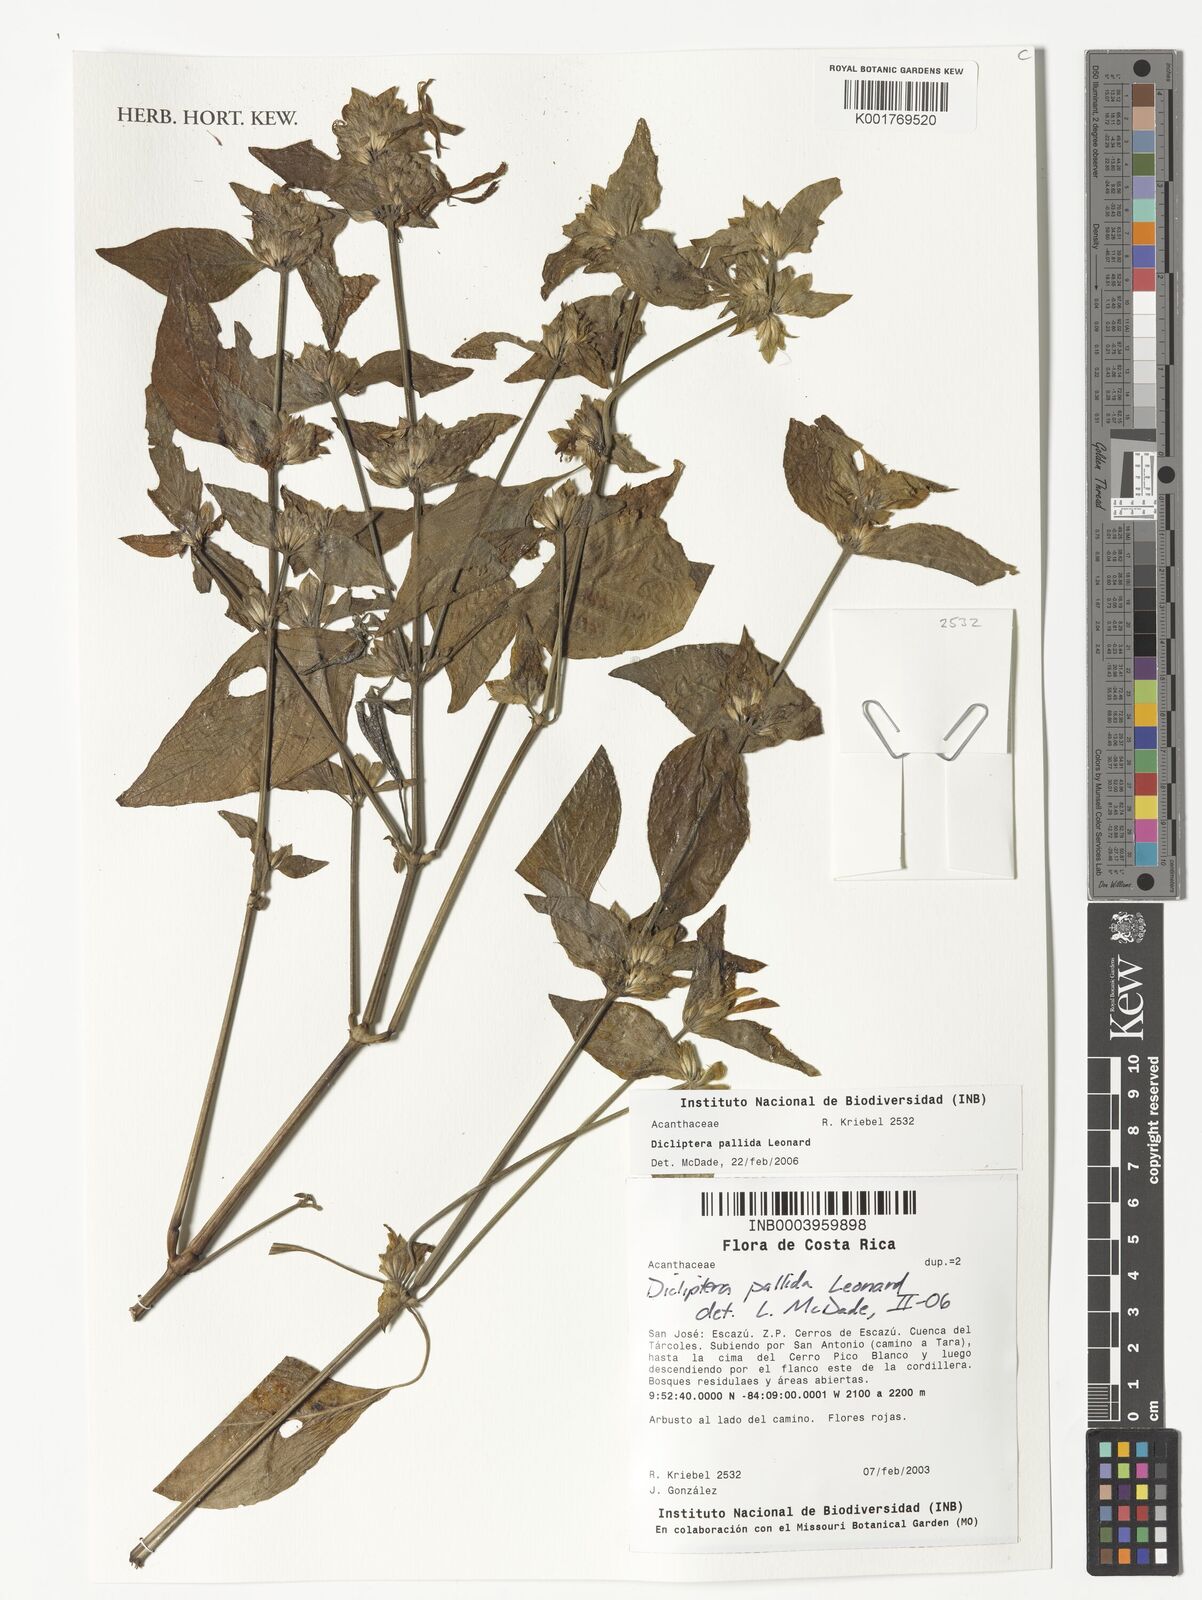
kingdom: Plantae
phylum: Tracheophyta
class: Magnoliopsida
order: Lamiales
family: Acanthaceae
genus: Dicliptera
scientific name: Dicliptera pallida
